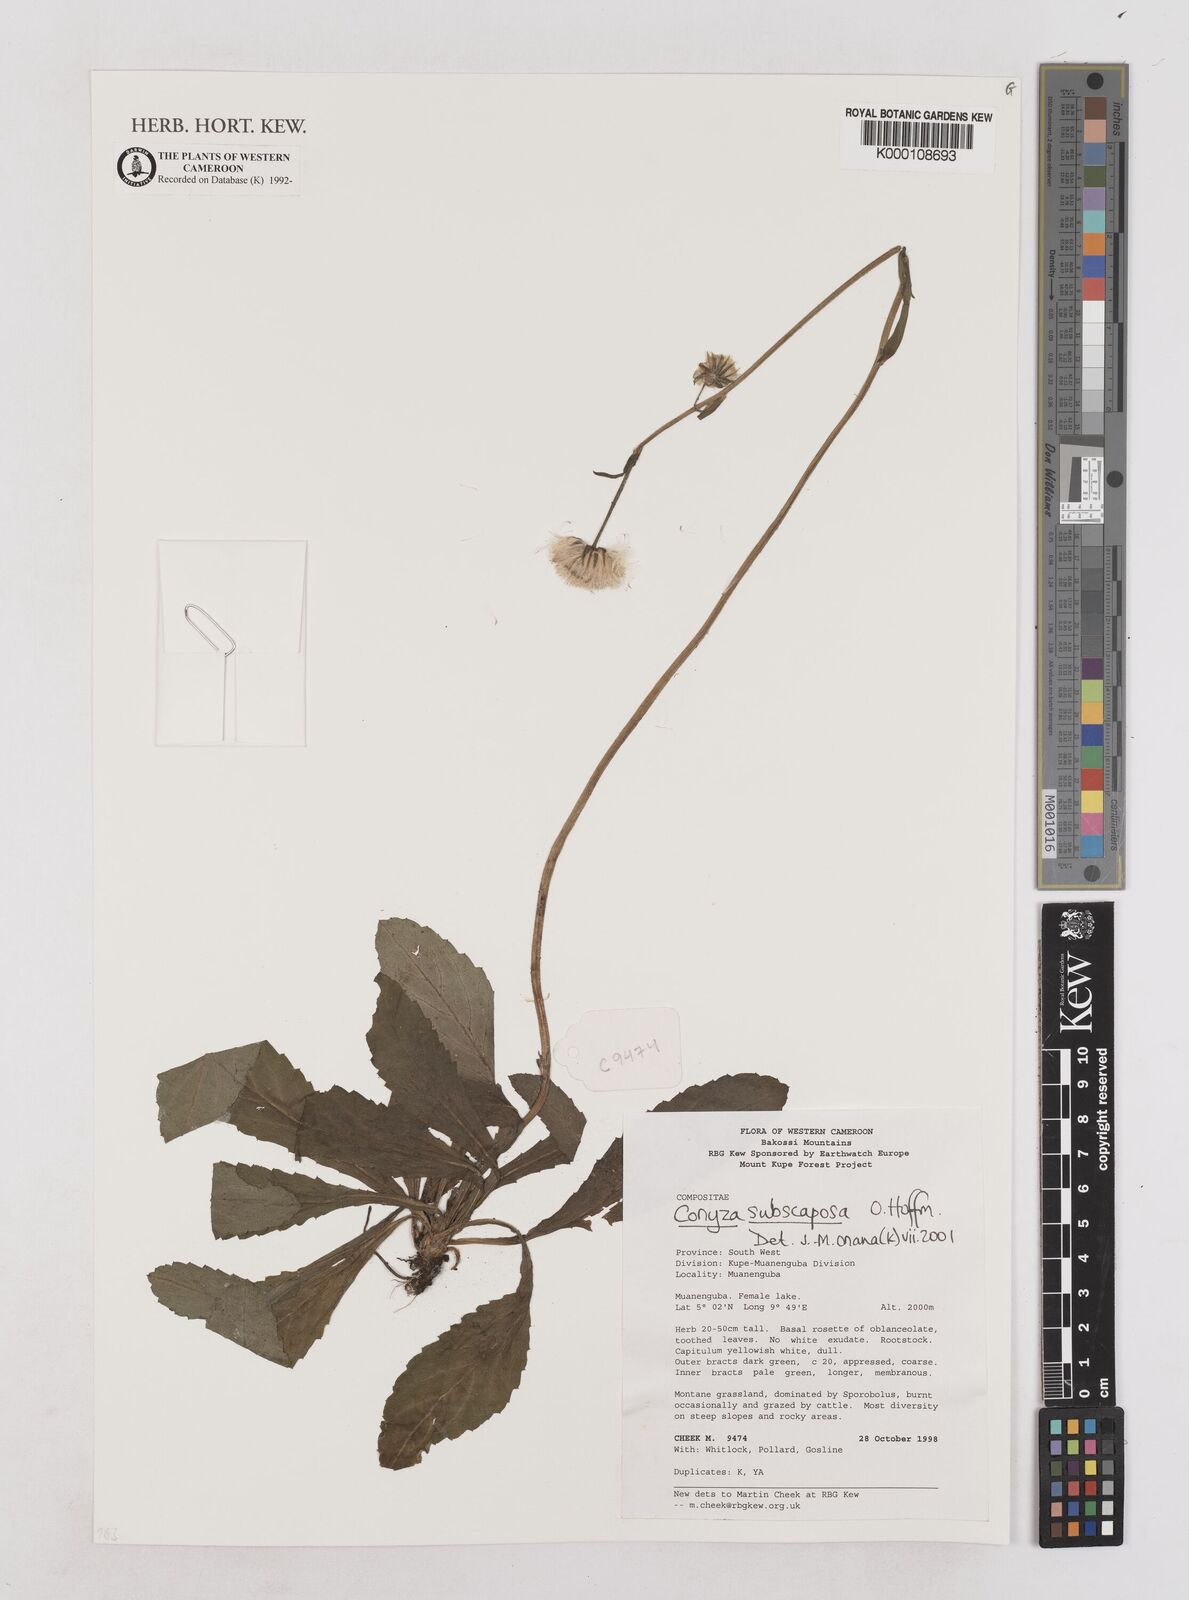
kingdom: Plantae
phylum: Tracheophyta
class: Magnoliopsida
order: Asterales
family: Asteraceae
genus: Eschenbachia
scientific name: Eschenbachia subscaposa
